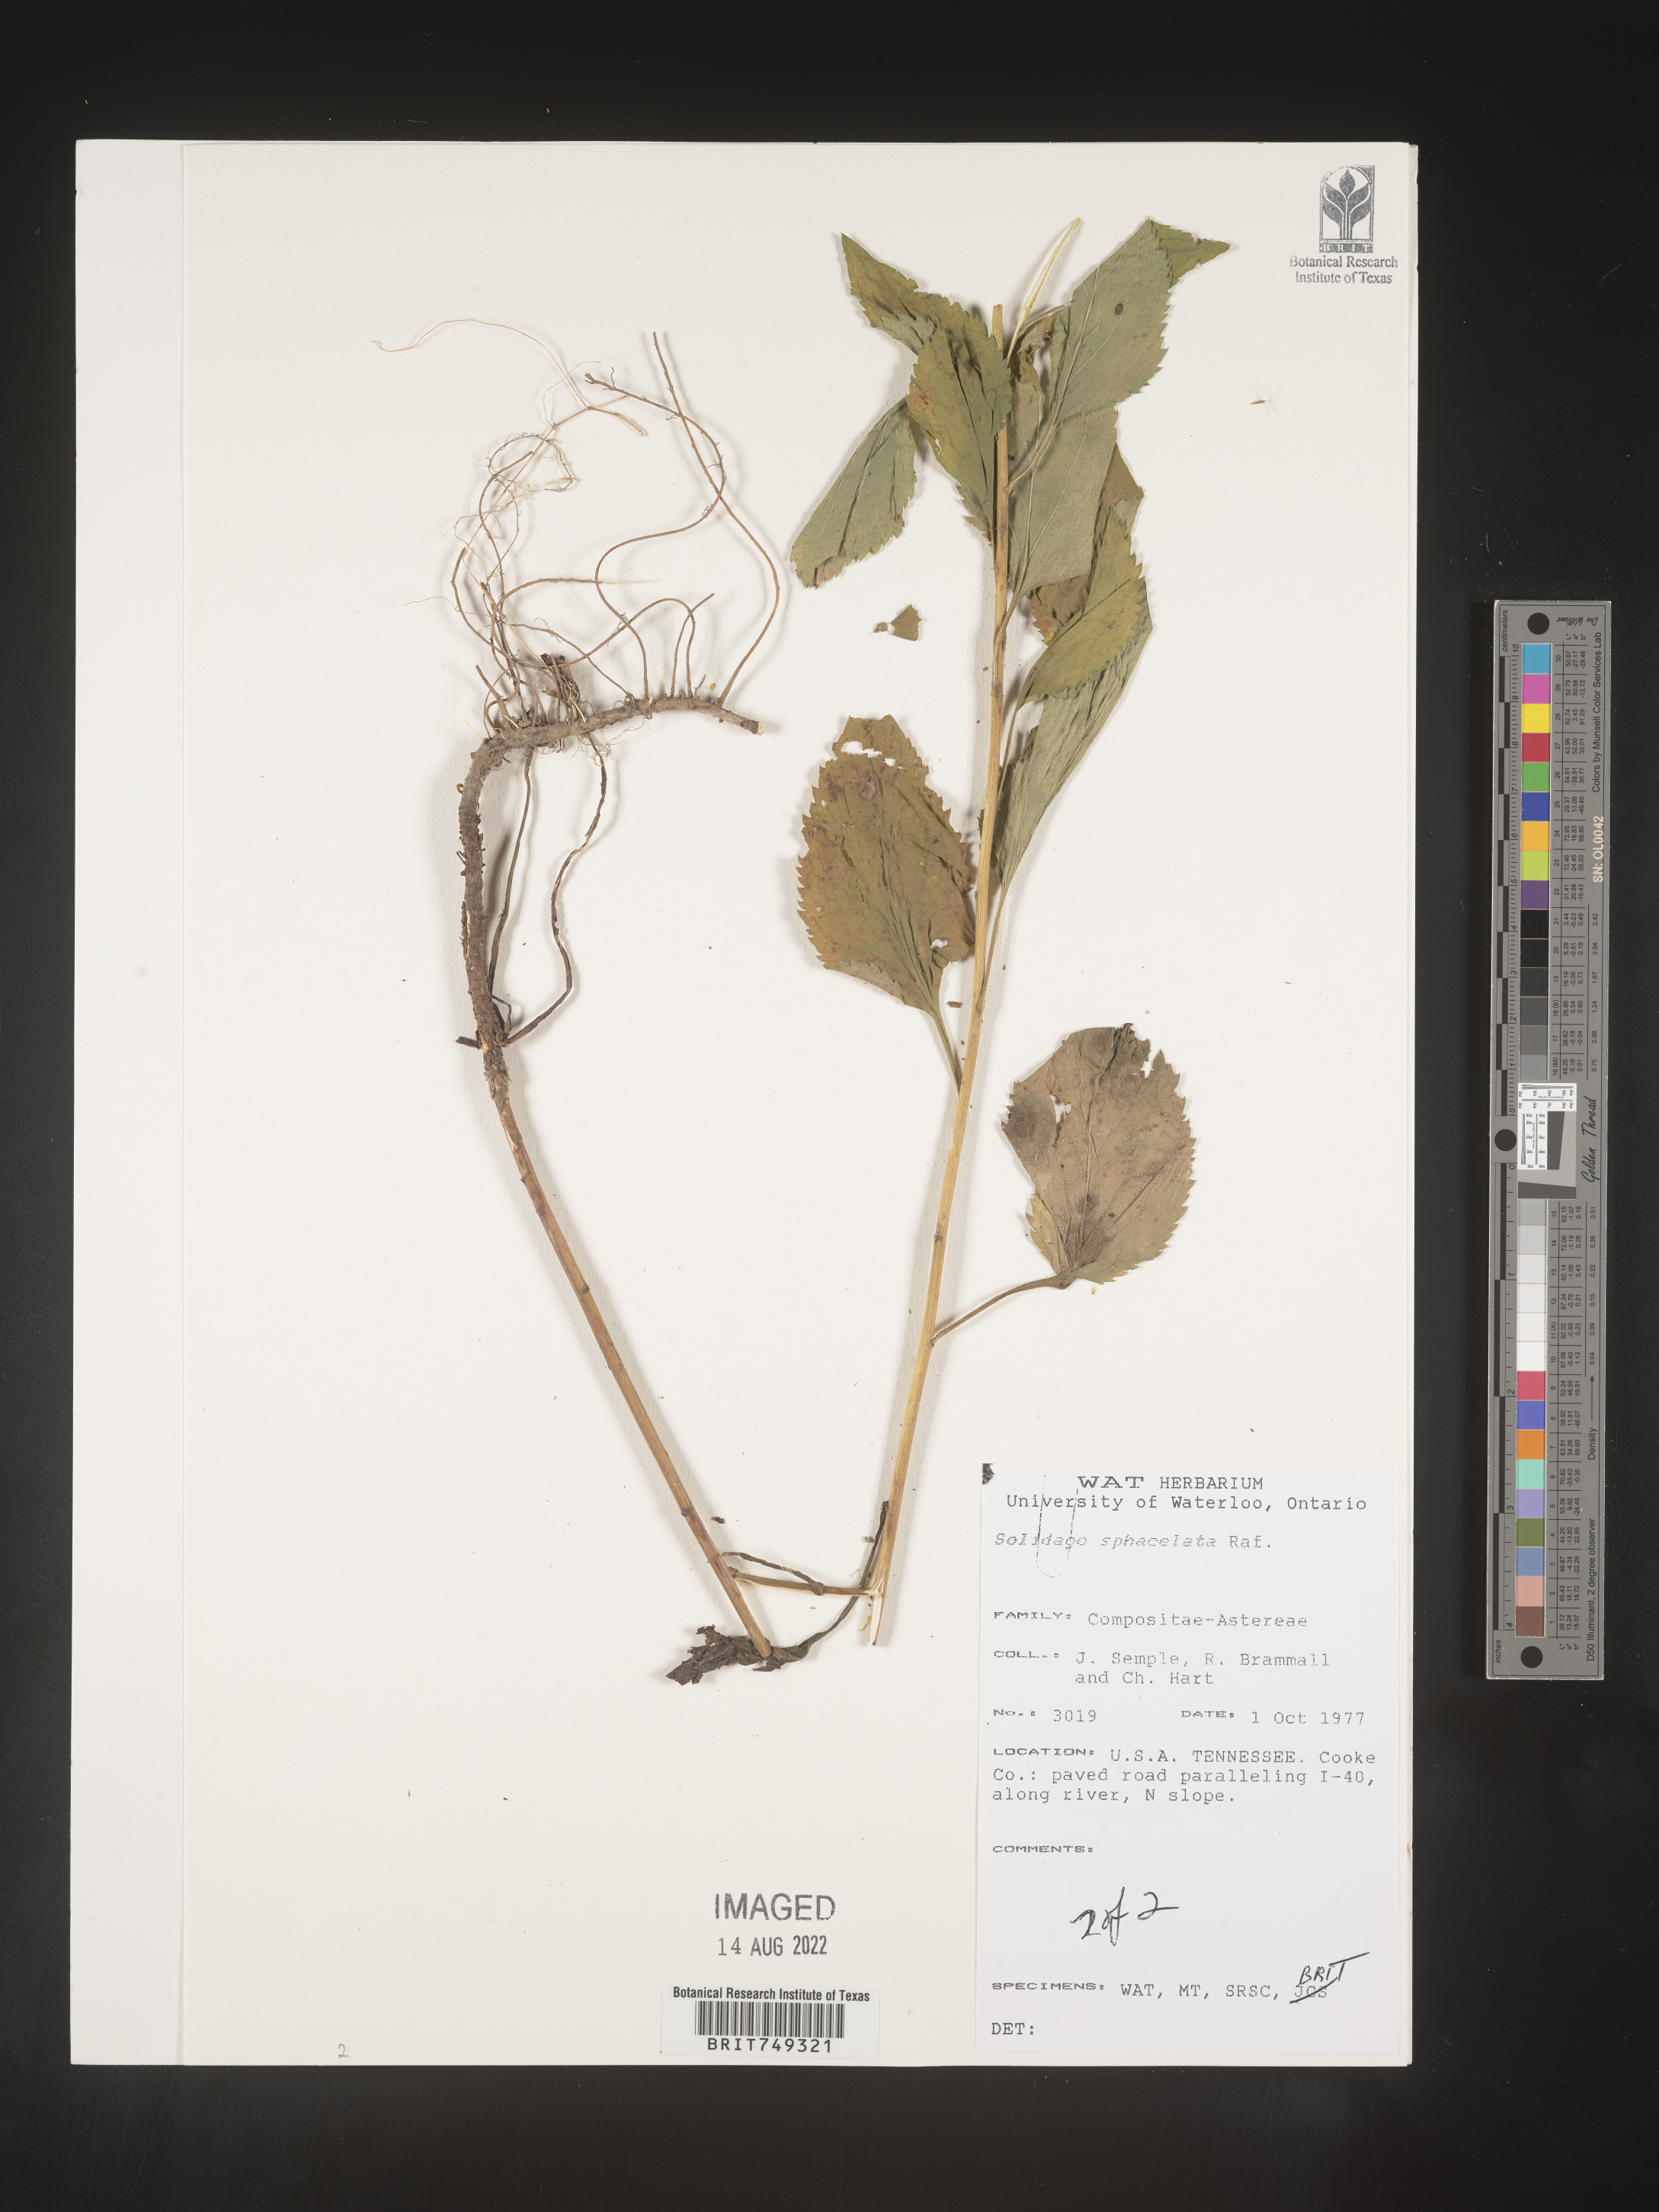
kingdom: Plantae
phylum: Tracheophyta
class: Magnoliopsida
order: Asterales
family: Asteraceae
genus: Solidago
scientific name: Solidago sphacelata
